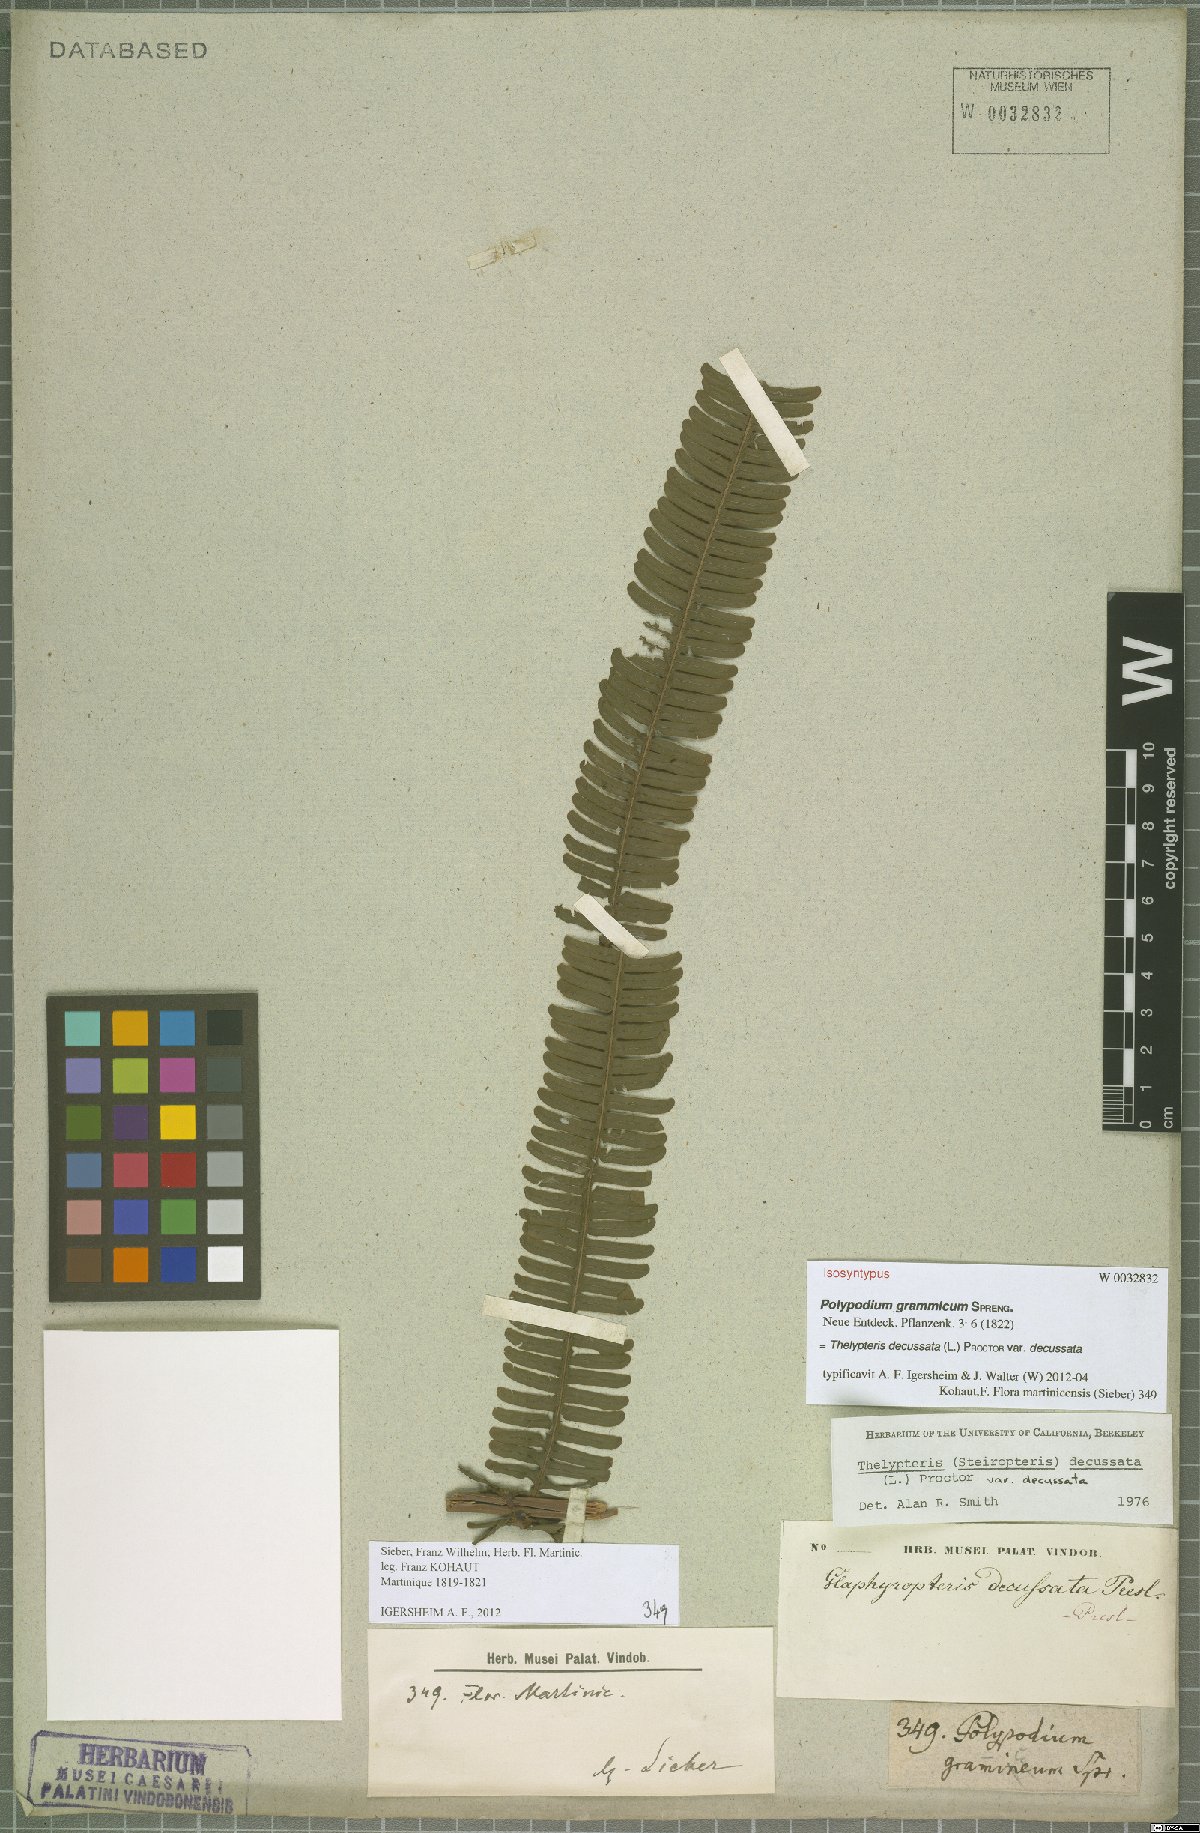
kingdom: Plantae
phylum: Tracheophyta
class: Polypodiopsida
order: Polypodiales
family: Thelypteridaceae
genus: Steiropteris
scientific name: Steiropteris decussata
